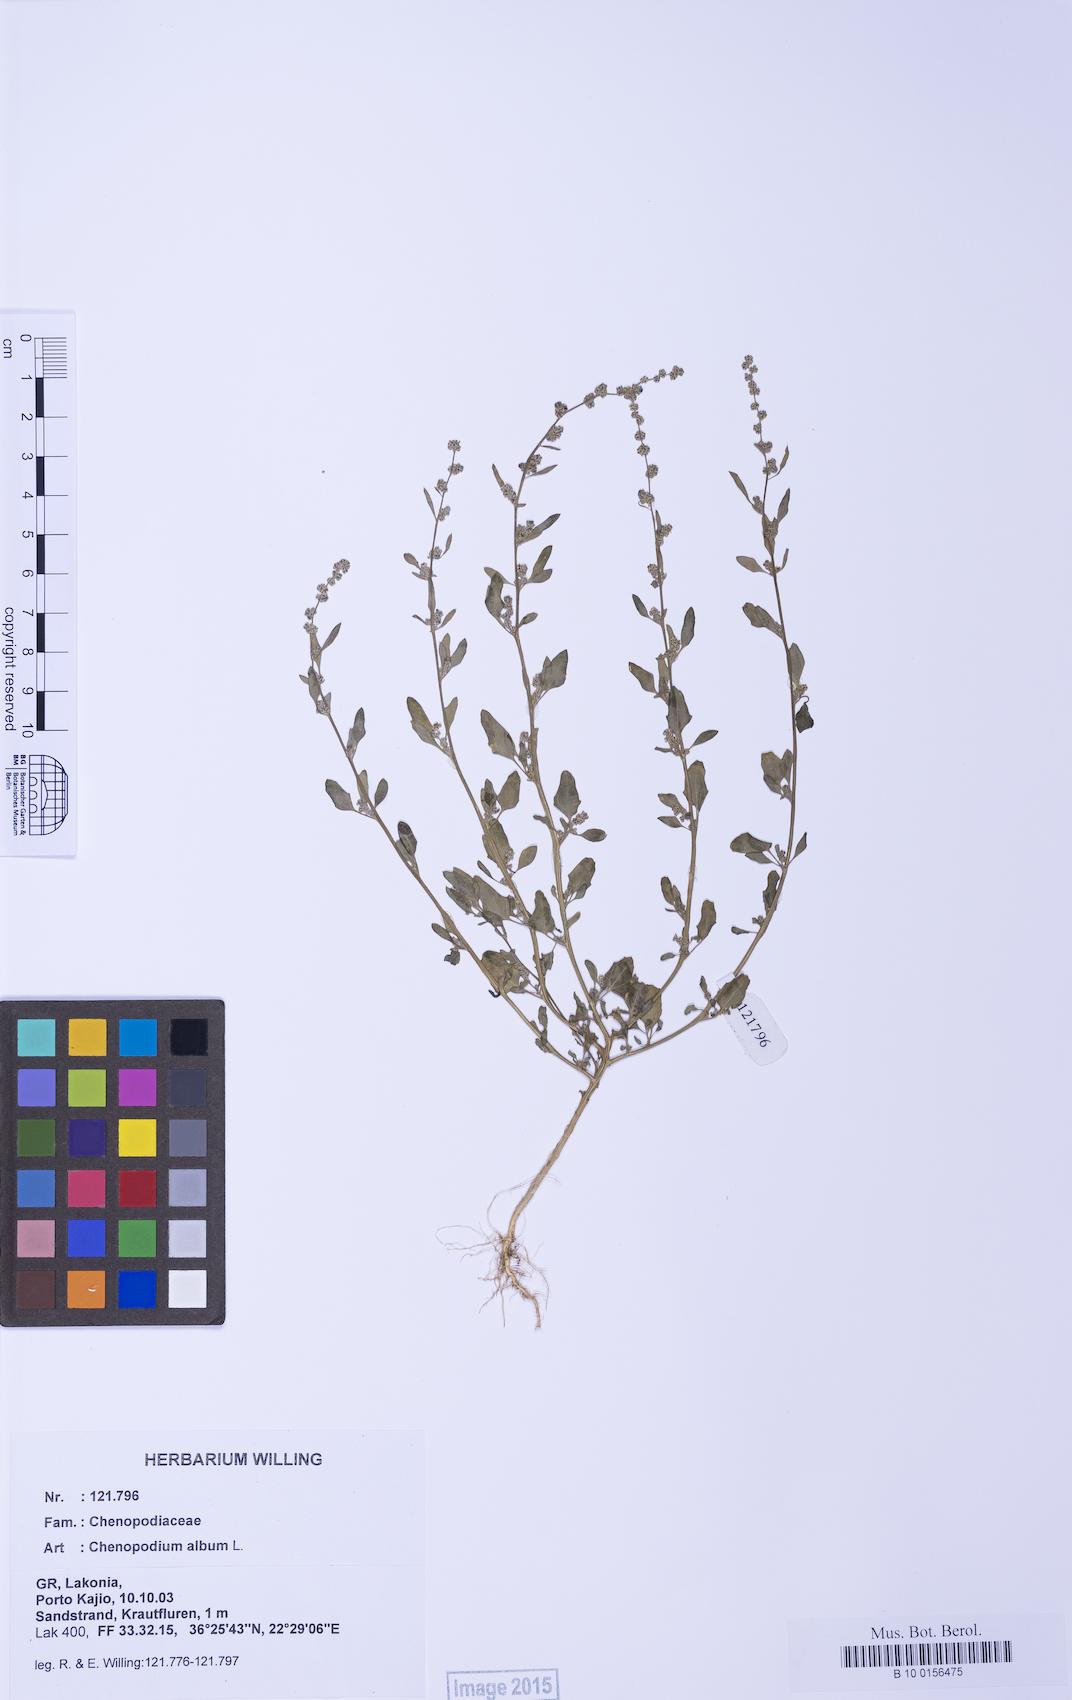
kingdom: Plantae
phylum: Tracheophyta
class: Magnoliopsida
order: Caryophyllales
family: Amaranthaceae
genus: Chenopodium
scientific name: Chenopodium striatiforme
